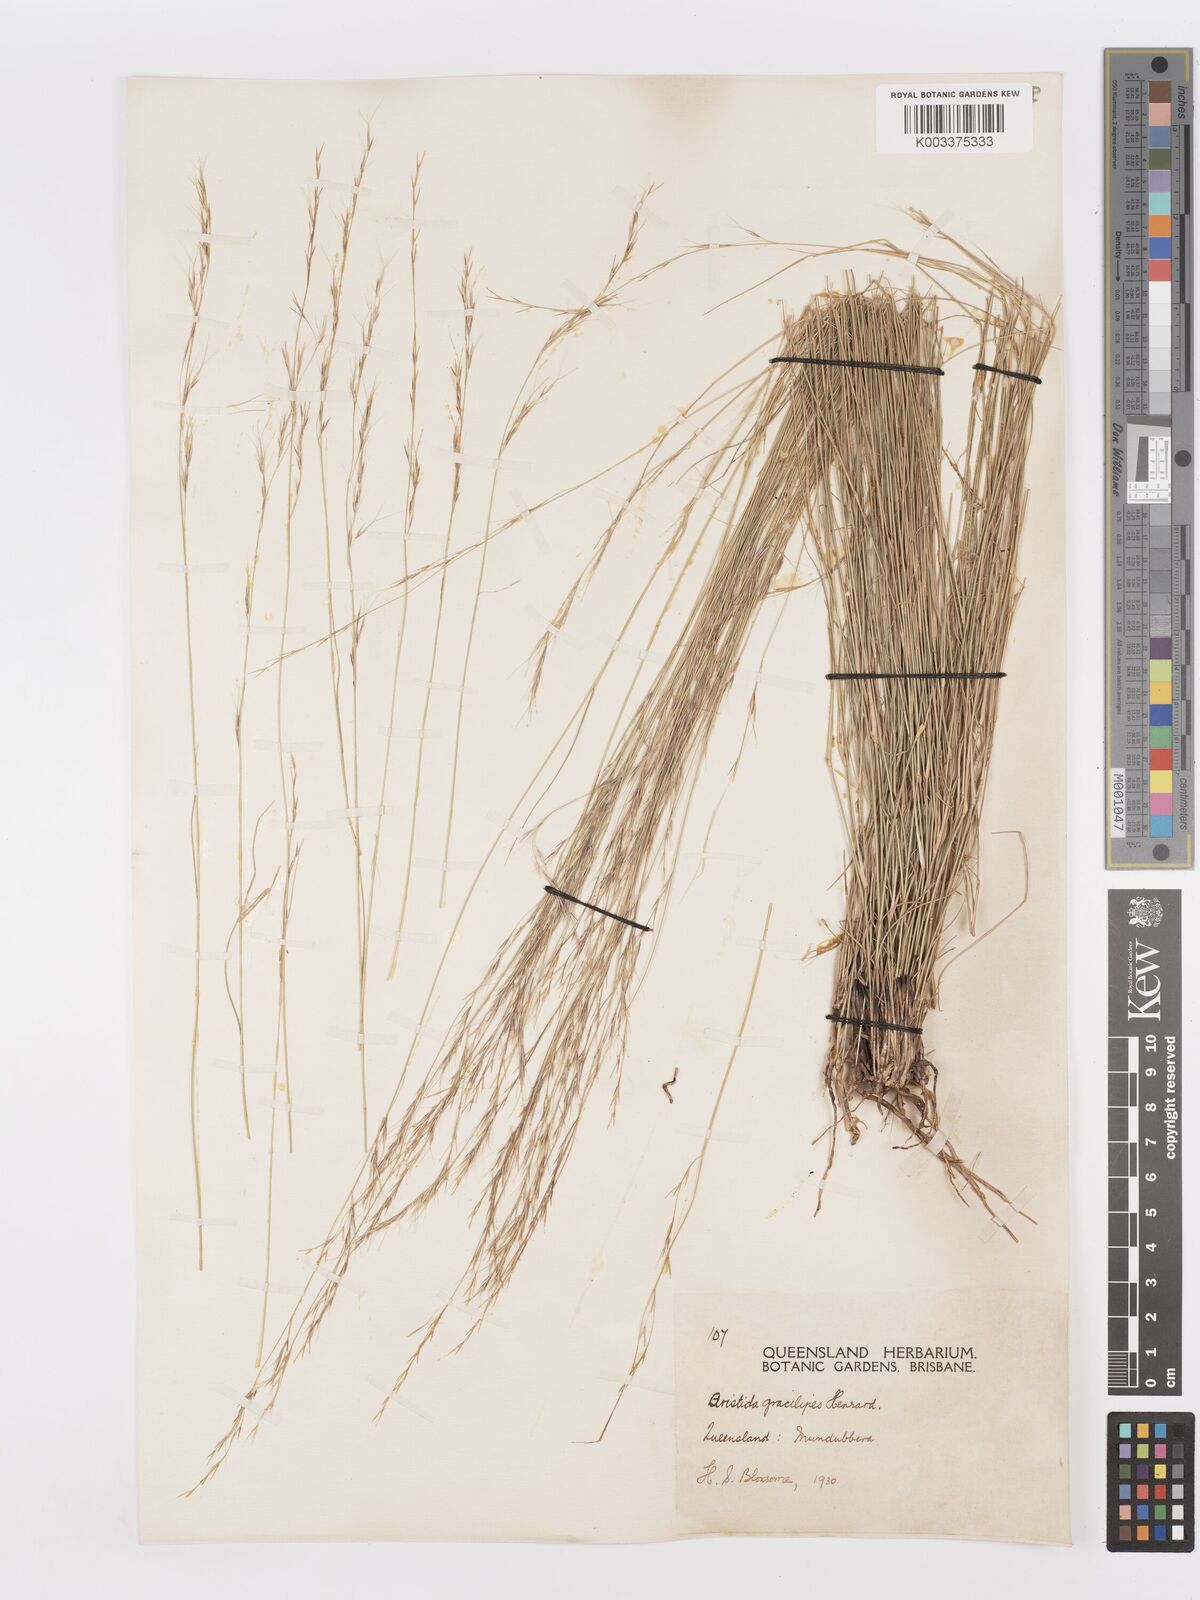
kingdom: Plantae
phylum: Tracheophyta
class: Liliopsida
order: Poales
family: Poaceae
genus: Aristida
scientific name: Aristida gracilipes
